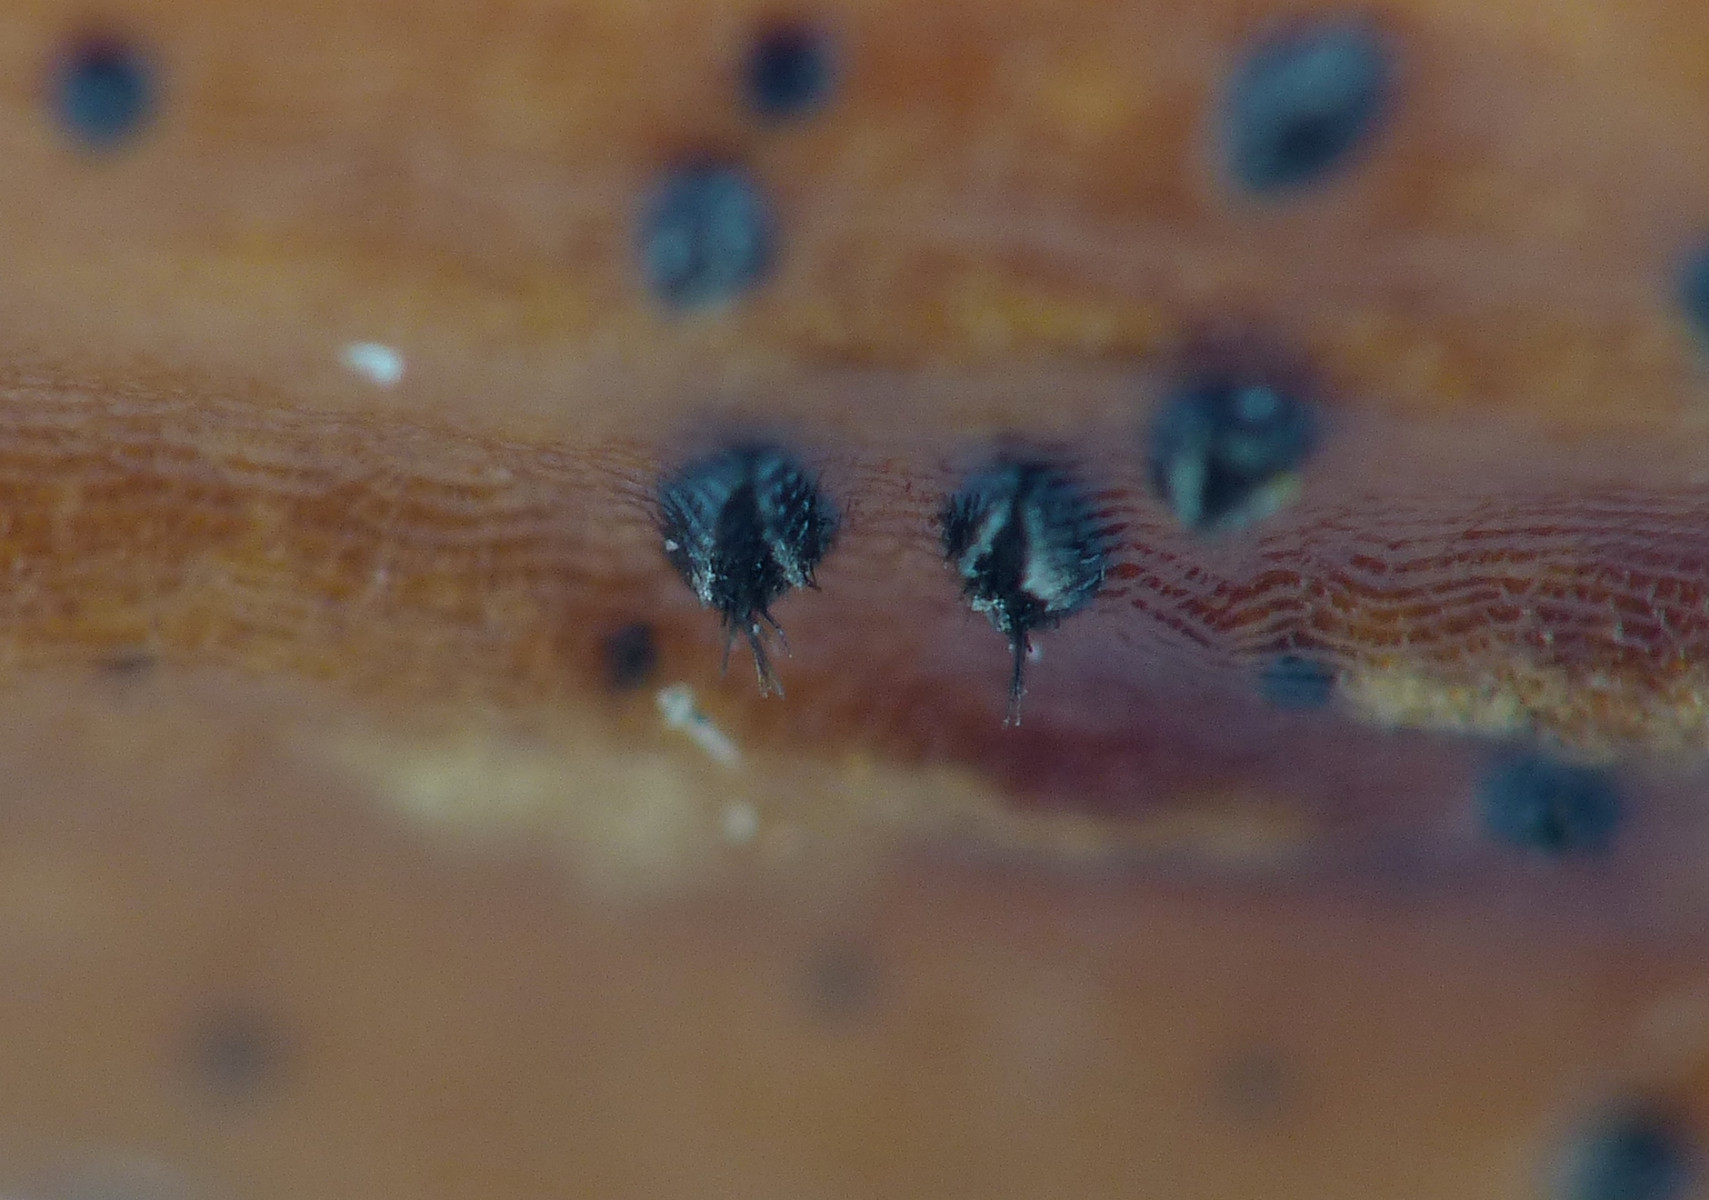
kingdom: Fungi
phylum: Ascomycota
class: Sordariomycetes
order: Glomerellales
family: Glomerellaceae
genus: Colletotrichum
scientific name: Colletotrichum
